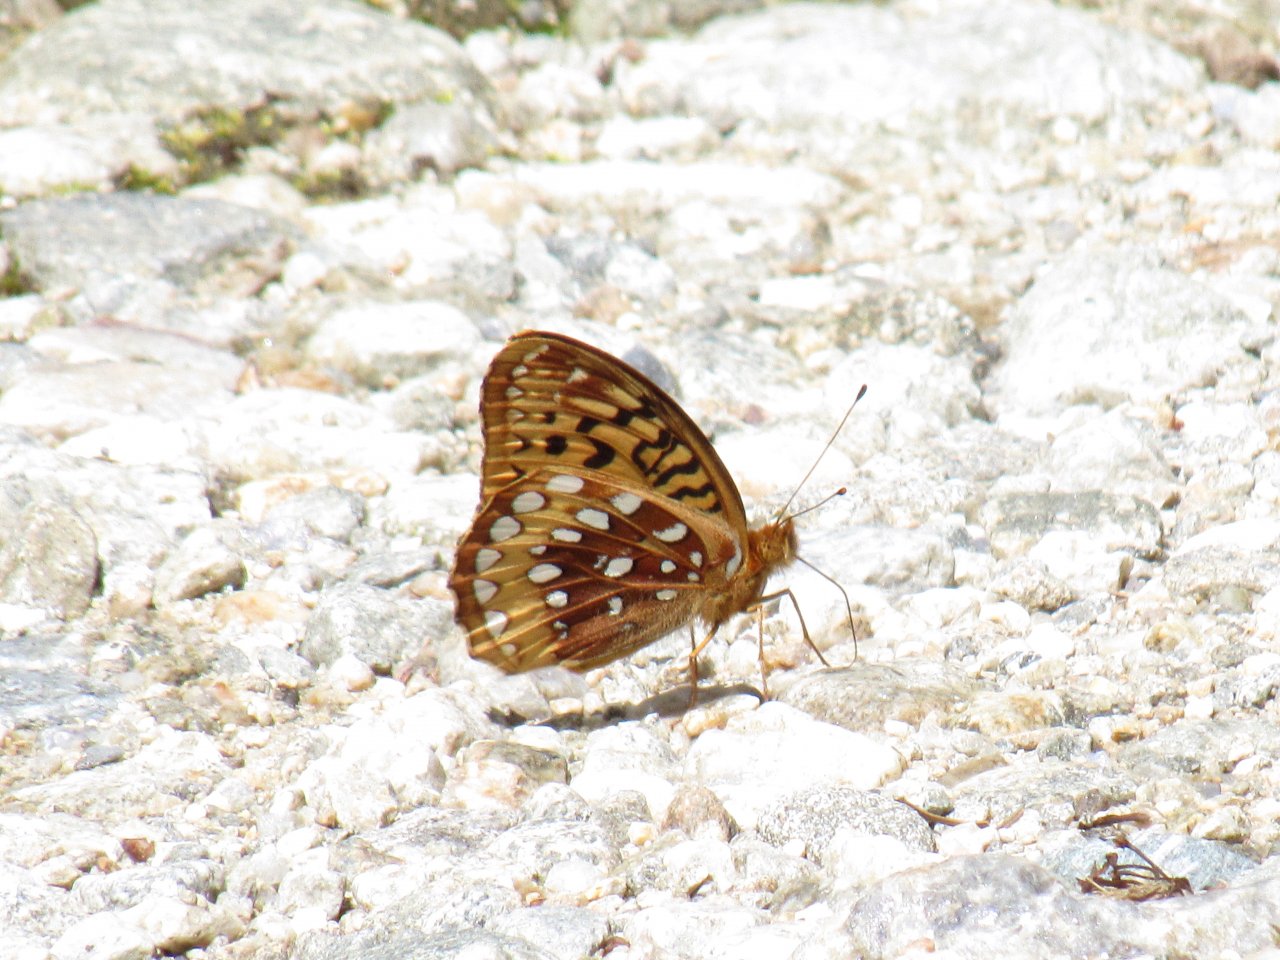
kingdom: Animalia
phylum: Arthropoda
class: Insecta
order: Lepidoptera
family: Nymphalidae
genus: Speyeria
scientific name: Speyeria cybele
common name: Great Spangled Fritillary
